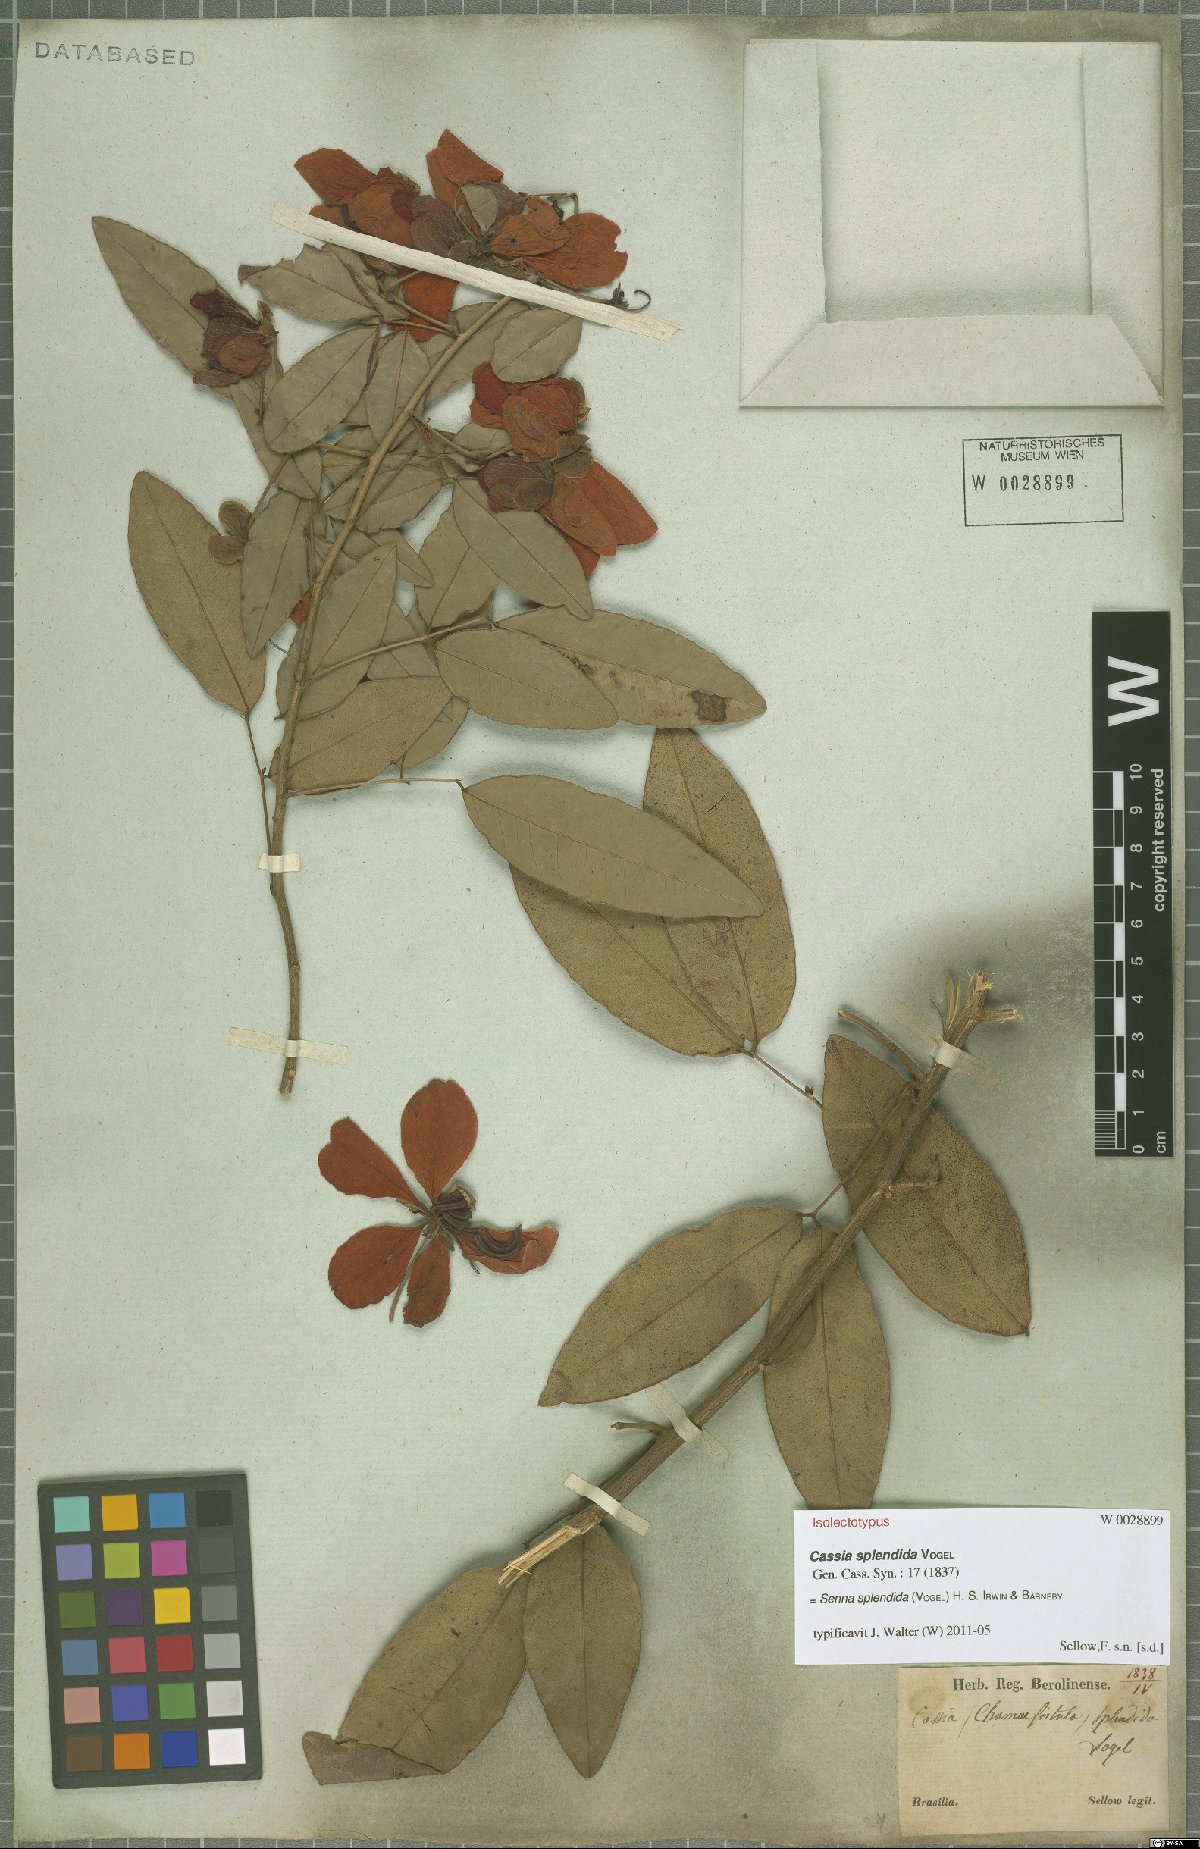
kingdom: Plantae
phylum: Tracheophyta
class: Magnoliopsida
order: Fabales
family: Fabaceae
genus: Senna
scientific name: Senna splendida
